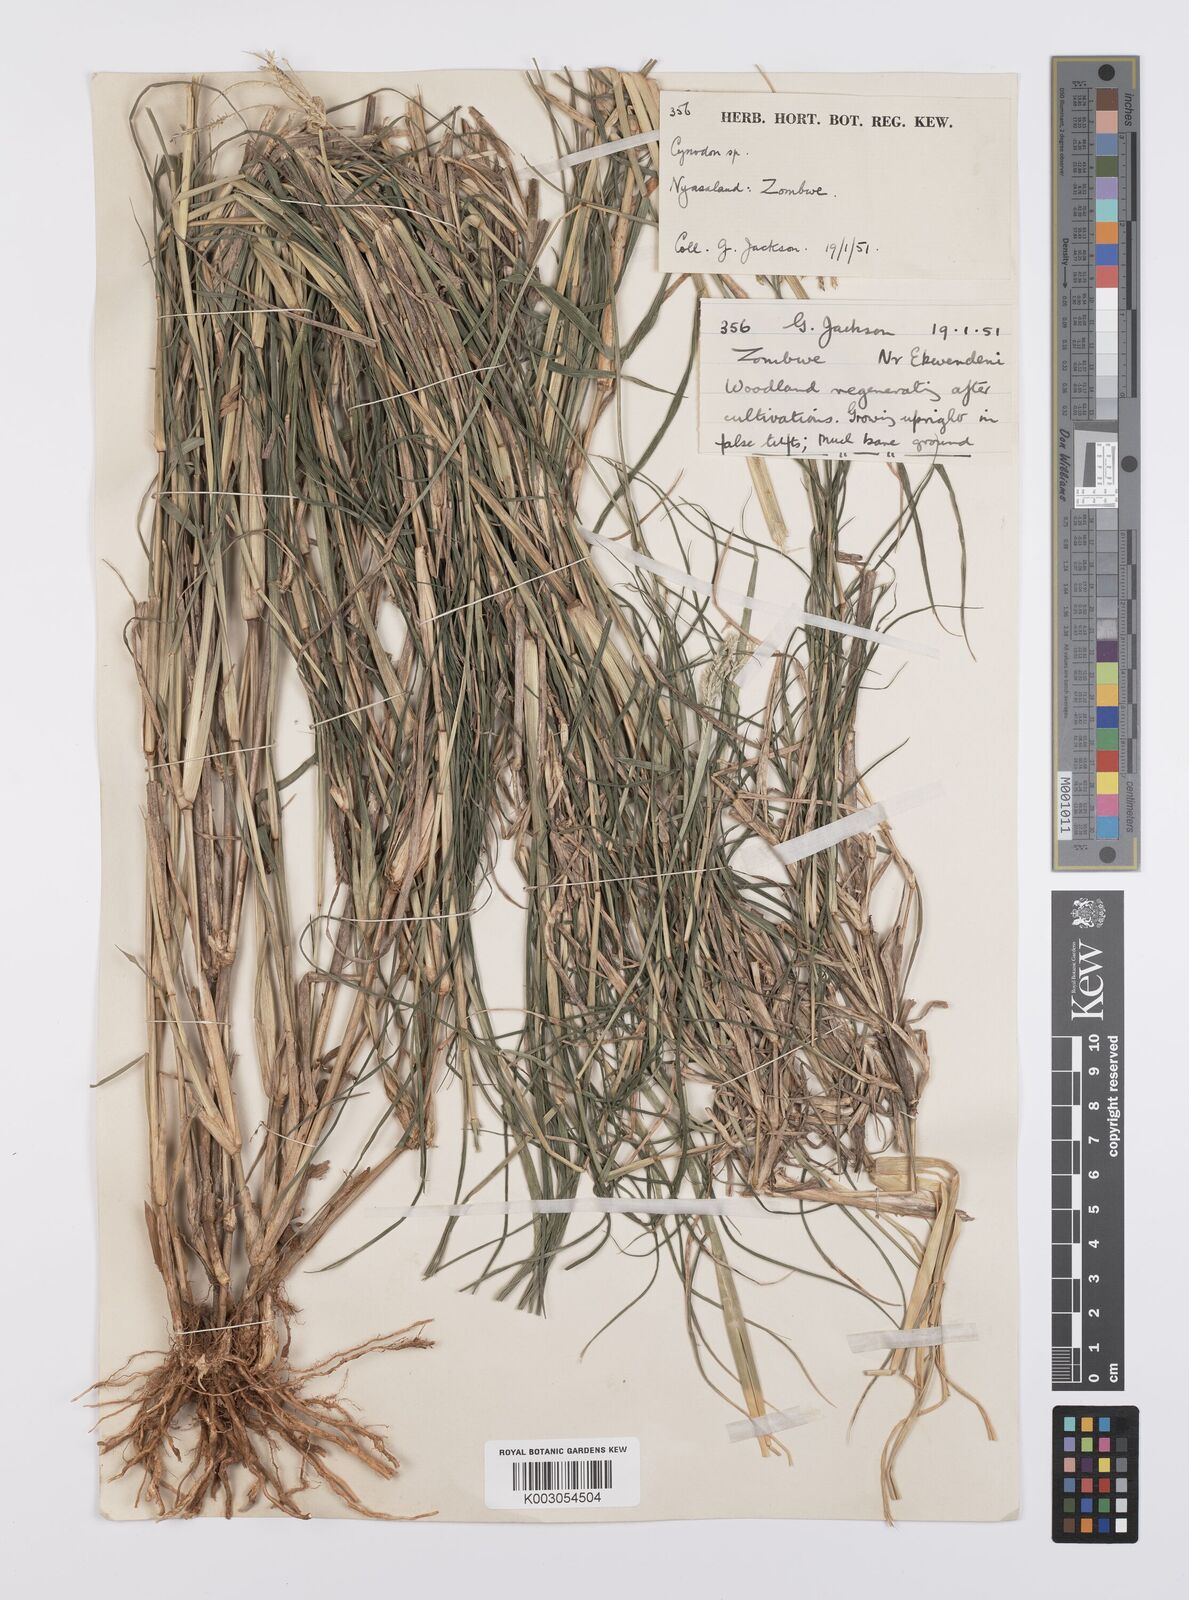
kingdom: Plantae
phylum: Tracheophyta
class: Liliopsida
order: Poales
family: Poaceae
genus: Cynodon
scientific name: Cynodon aethiopicus
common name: Ethiopian dogstooth grass
